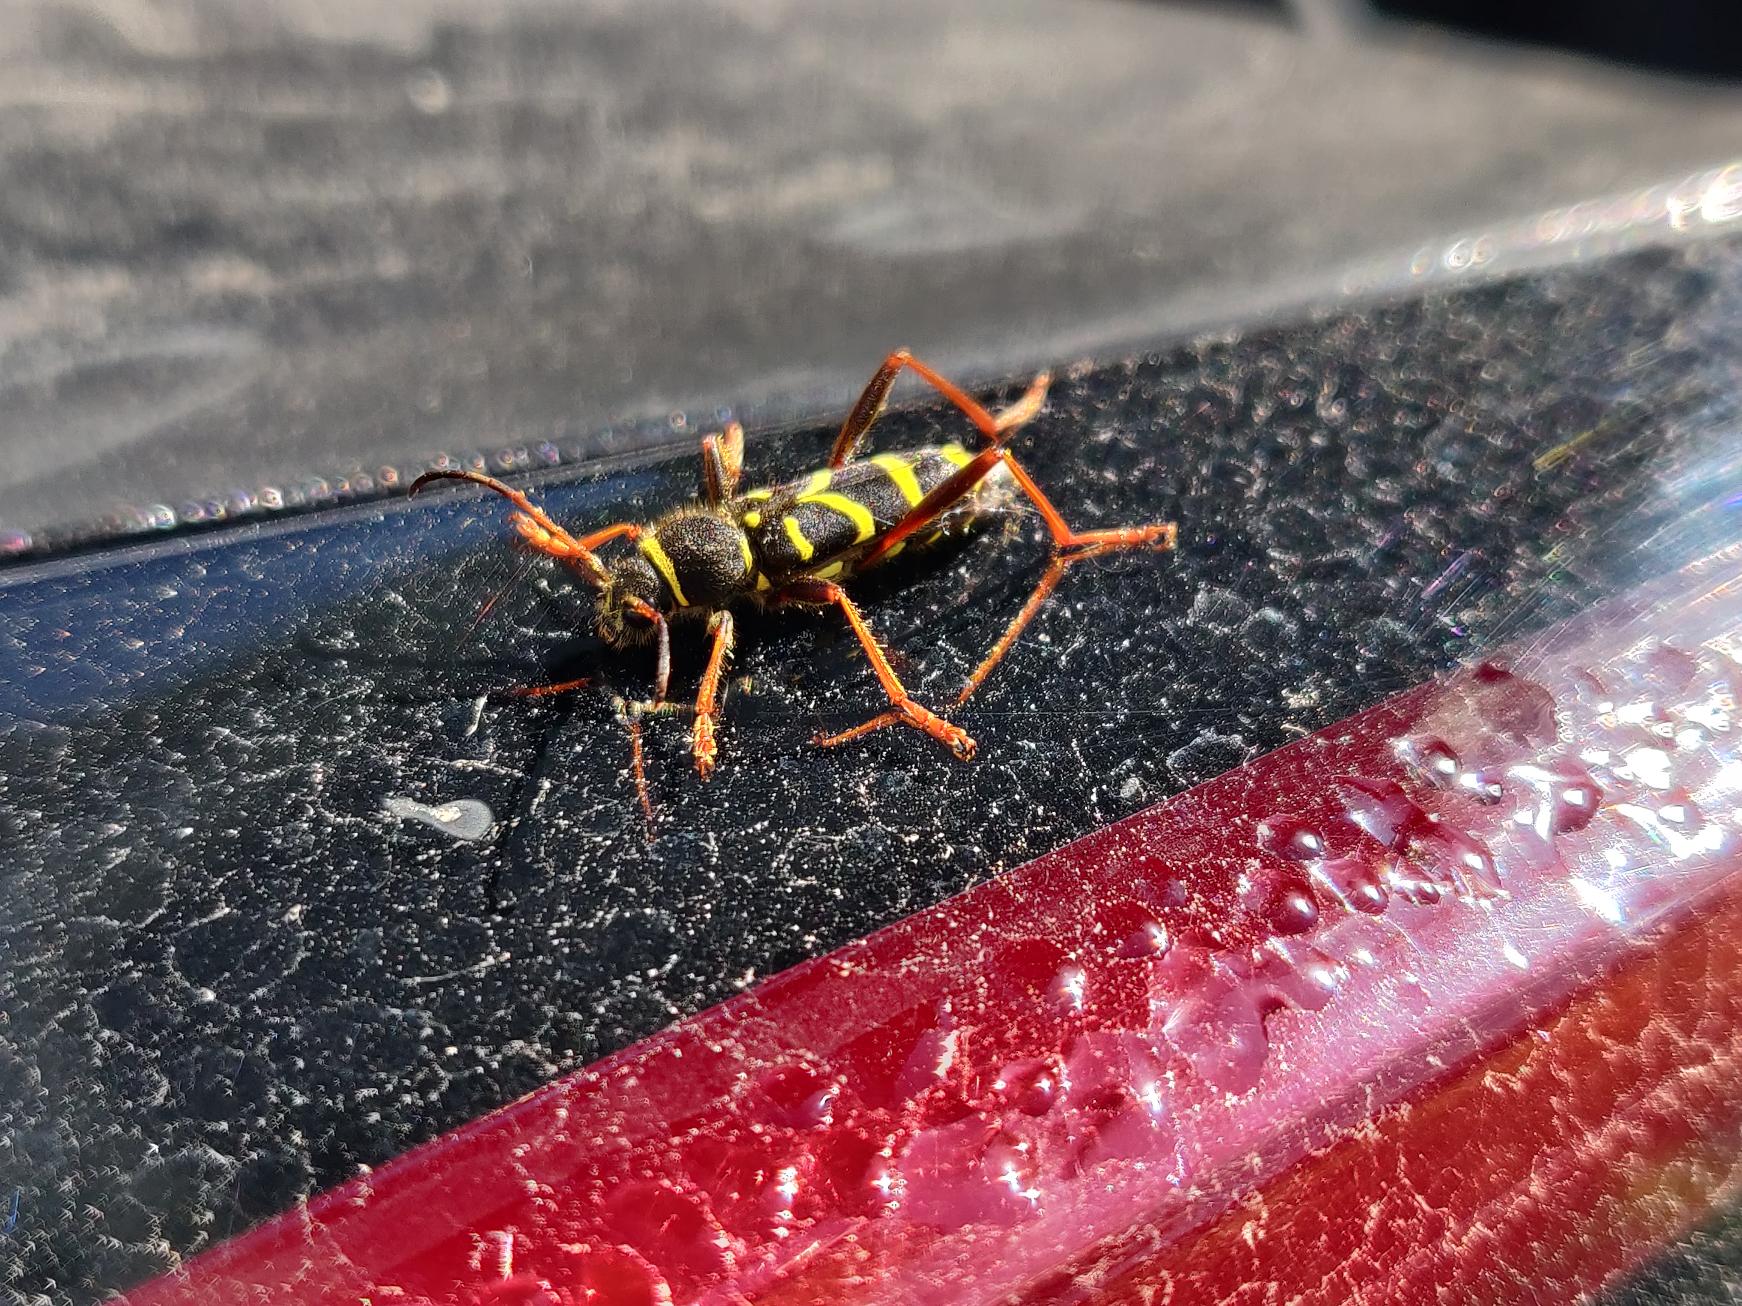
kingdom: Animalia
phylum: Arthropoda
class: Insecta
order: Coleoptera
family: Cerambycidae
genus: Clytus
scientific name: Clytus arietis
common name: Lille hvepsebuk
